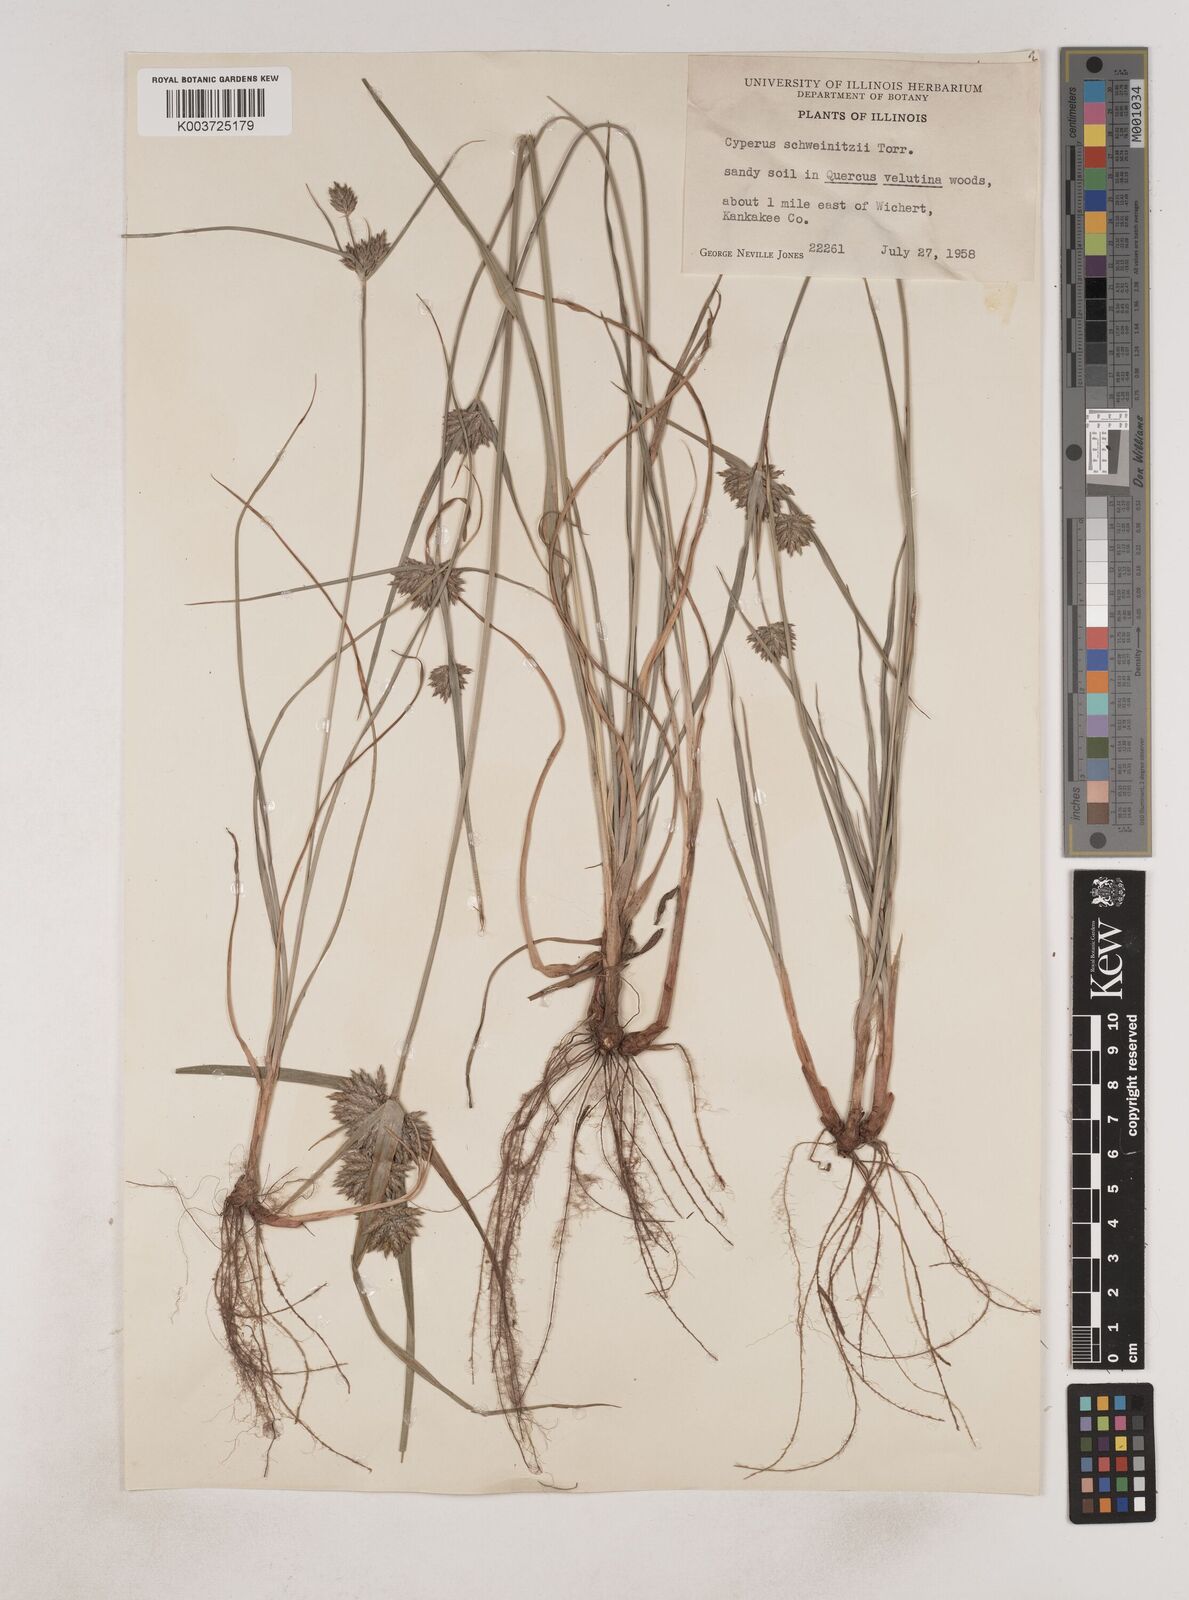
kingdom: Plantae
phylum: Tracheophyta
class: Liliopsida
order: Poales
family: Cyperaceae
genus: Cyperus
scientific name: Cyperus schweinitzii
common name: Schweinitz's cyperus
